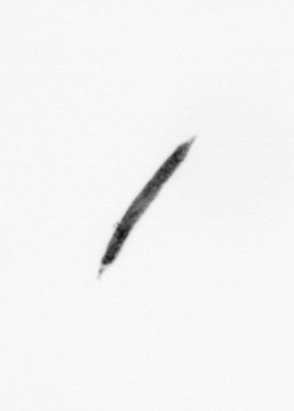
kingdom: Bacteria
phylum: Cyanobacteria
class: Cyanobacteriia
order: Cyanobacteriales
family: Microcoleaceae
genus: Trichodesmium
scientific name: Trichodesmium
